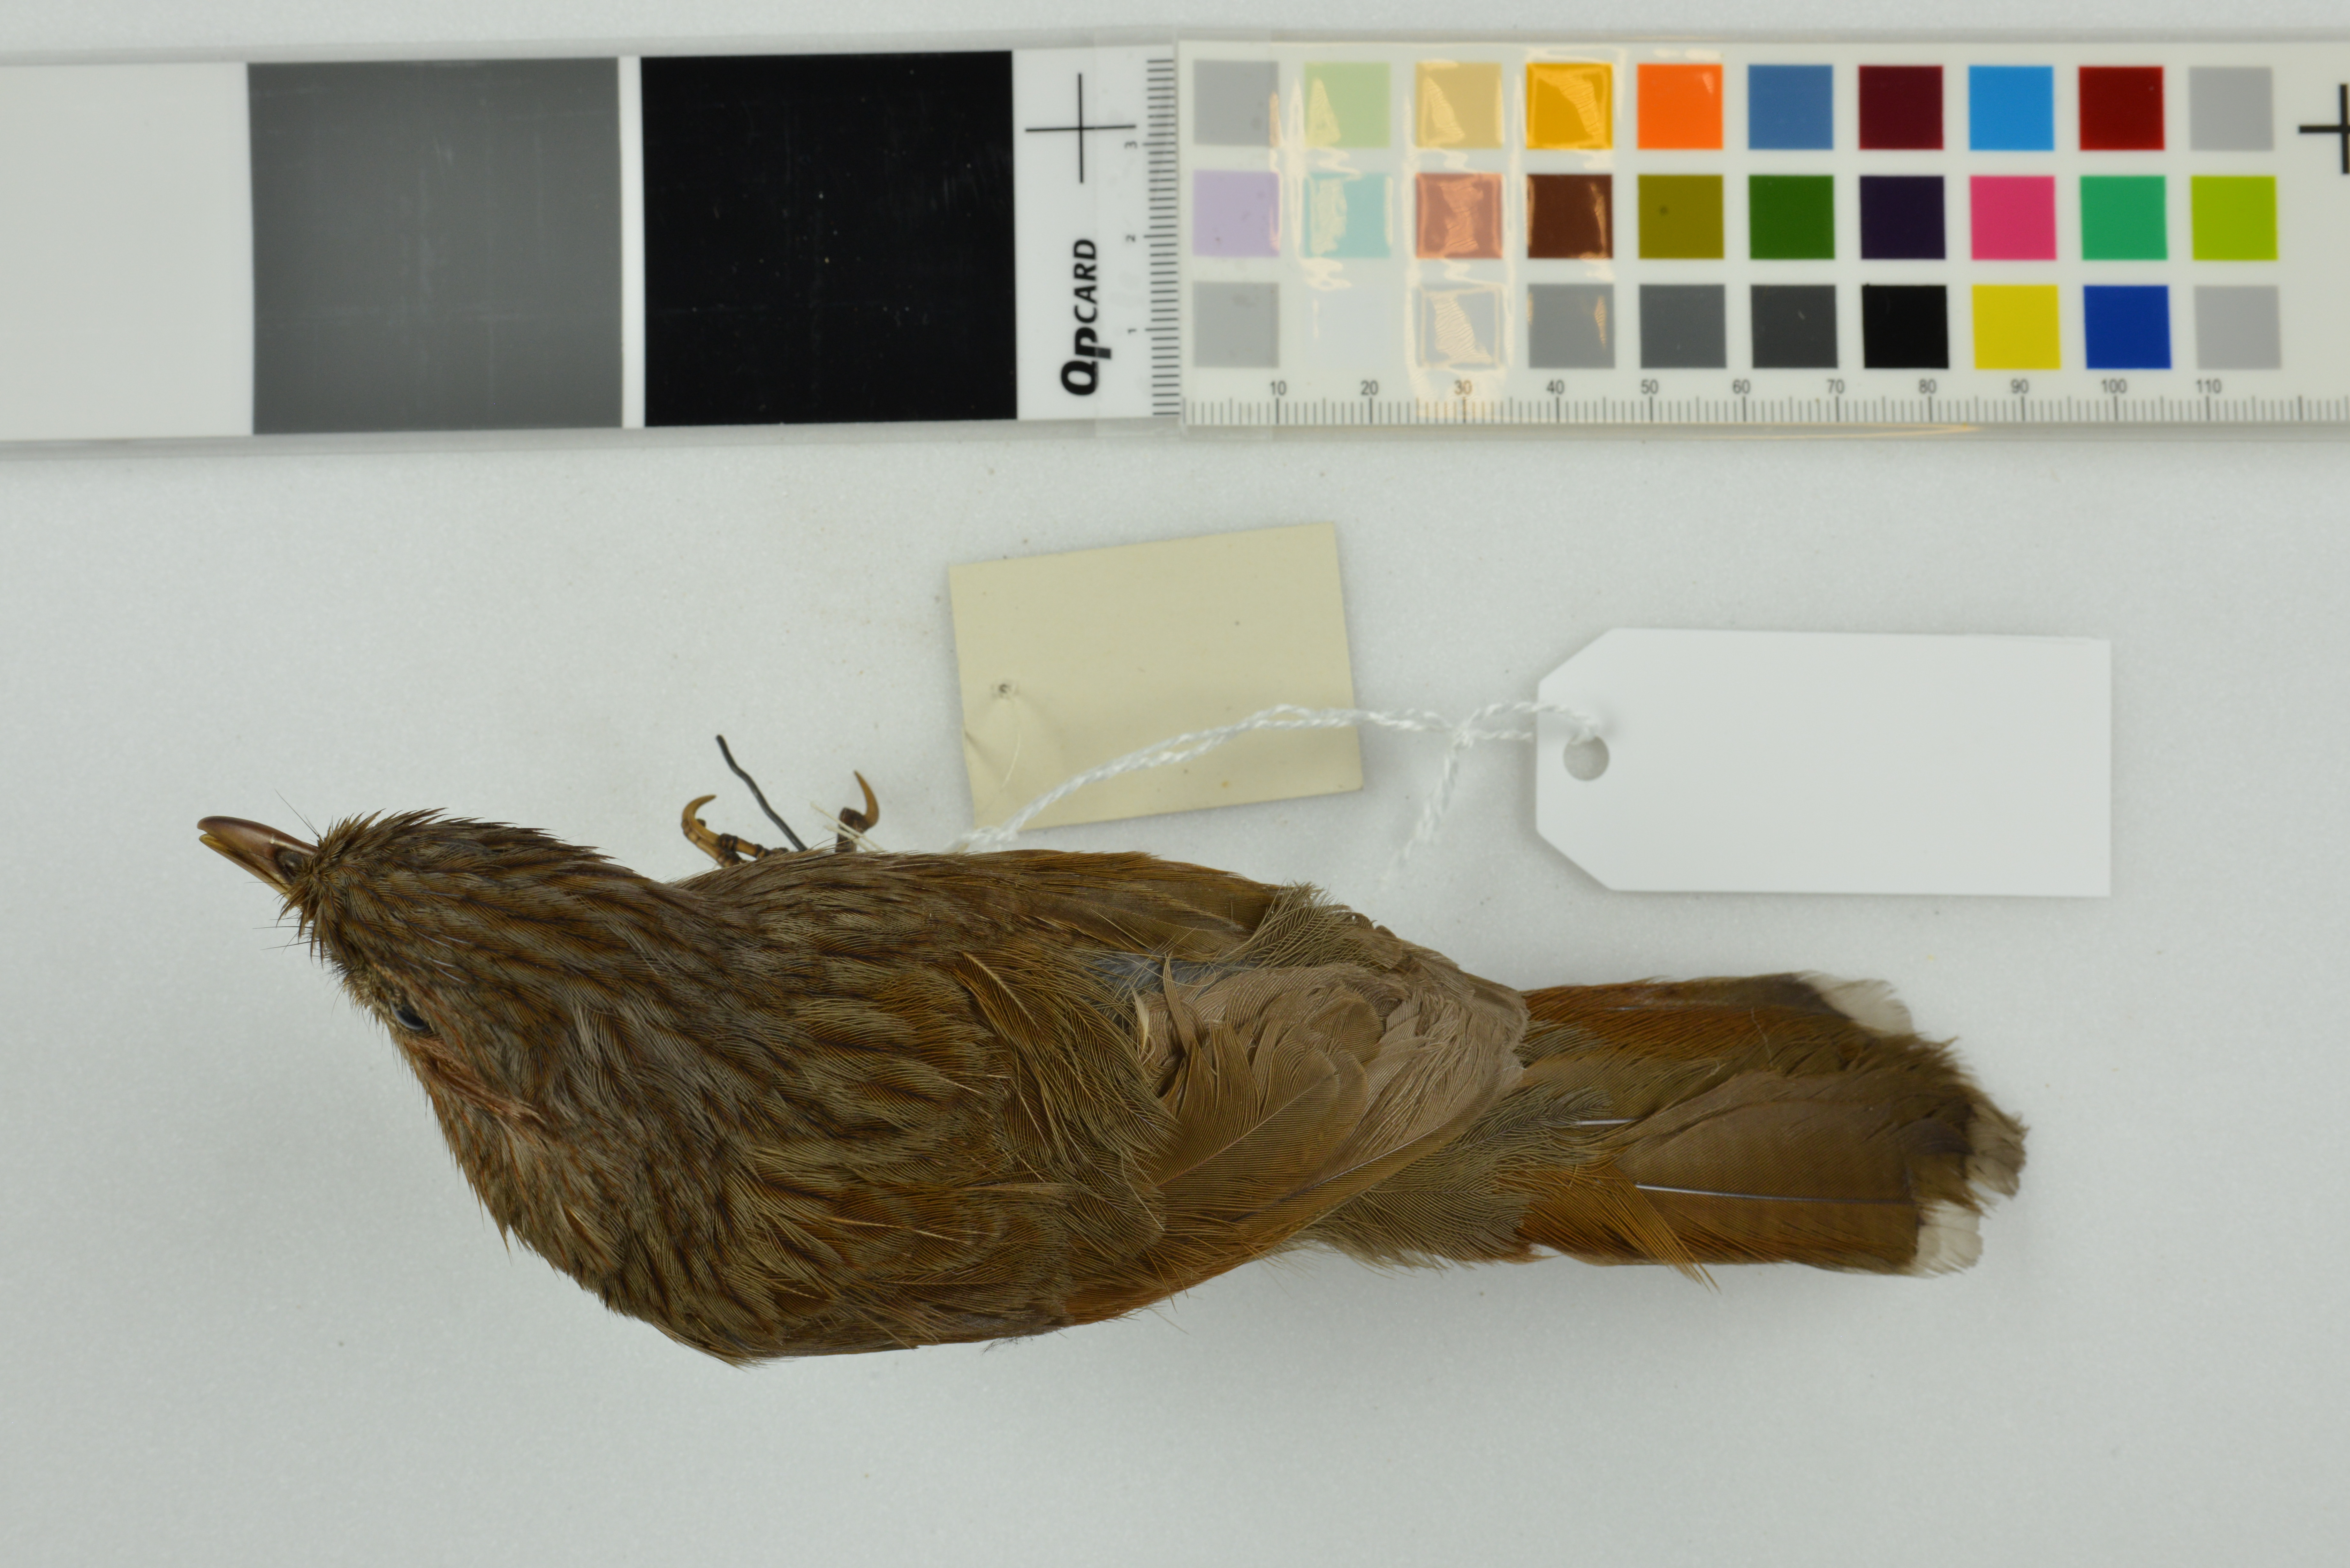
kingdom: Animalia
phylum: Chordata
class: Aves
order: Passeriformes
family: Leiothrichidae
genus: Trochalopteron
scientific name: Trochalopteron lineatum
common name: Streaked laughingthrush
